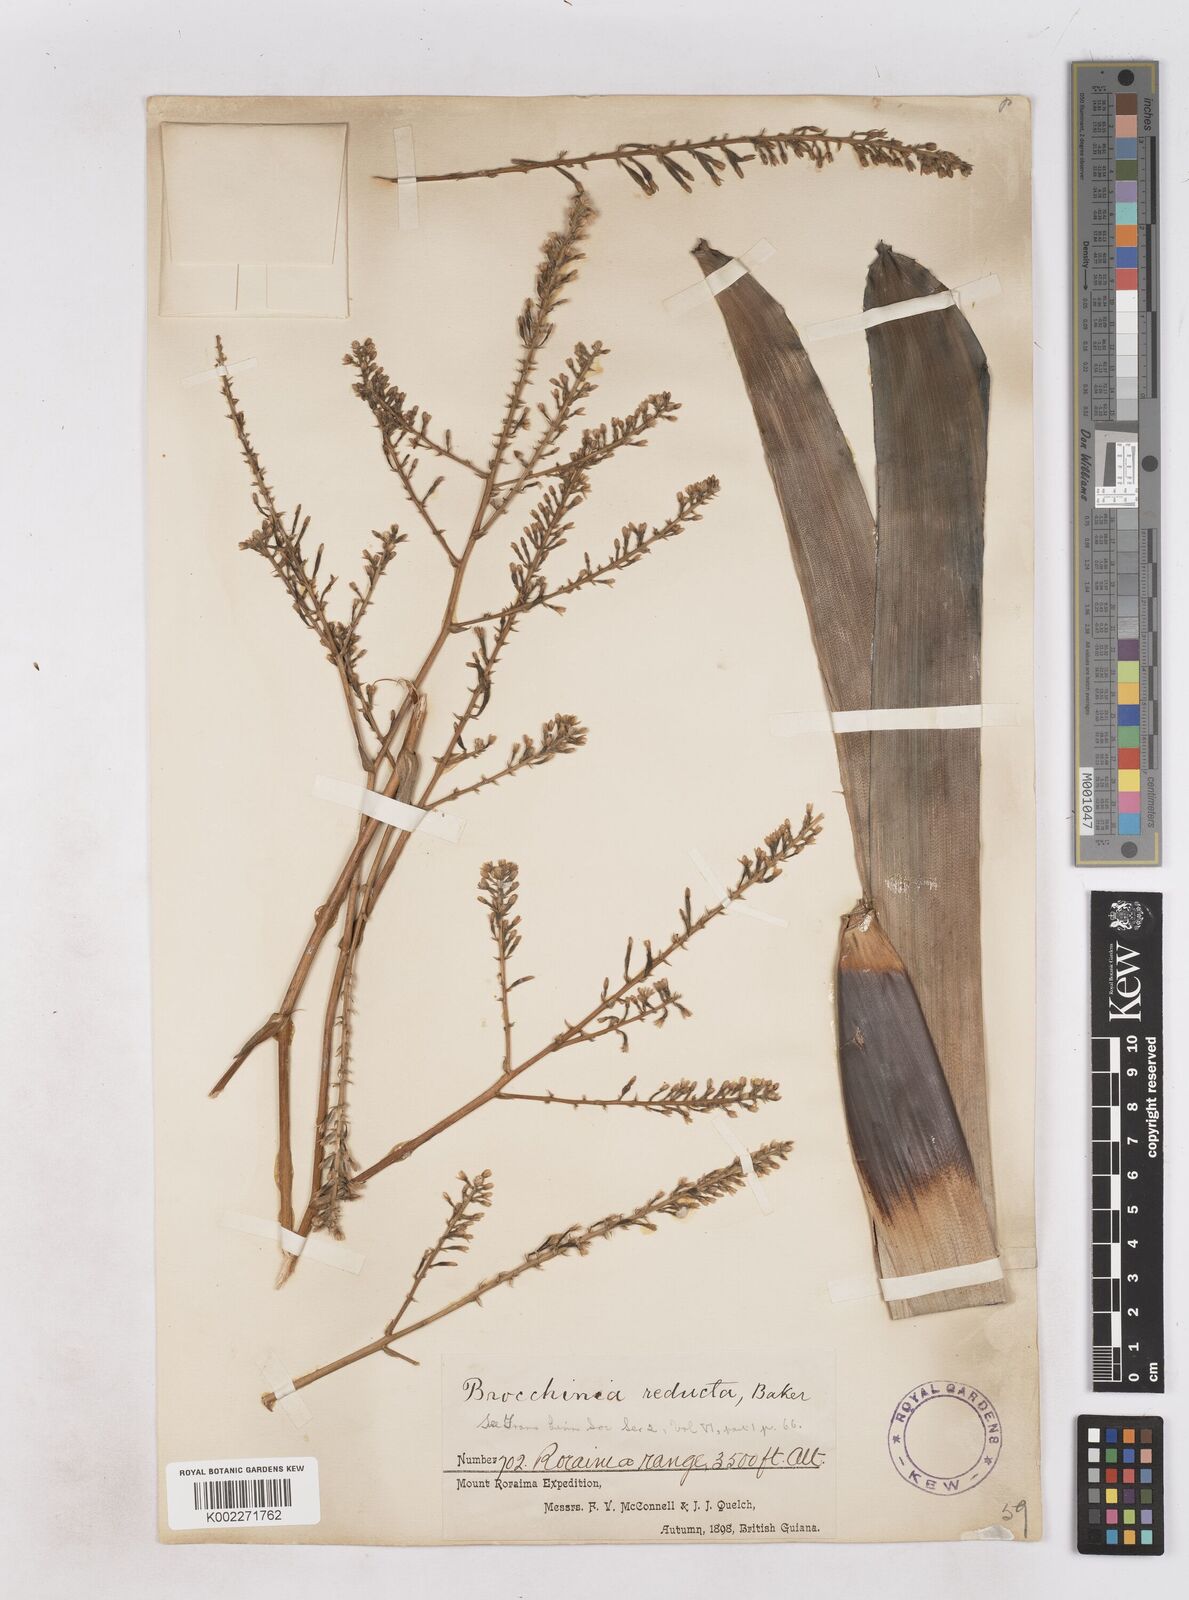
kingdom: Plantae
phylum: Tracheophyta
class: Liliopsida
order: Poales
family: Bromeliaceae
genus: Brocchinia
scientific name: Brocchinia reducta
